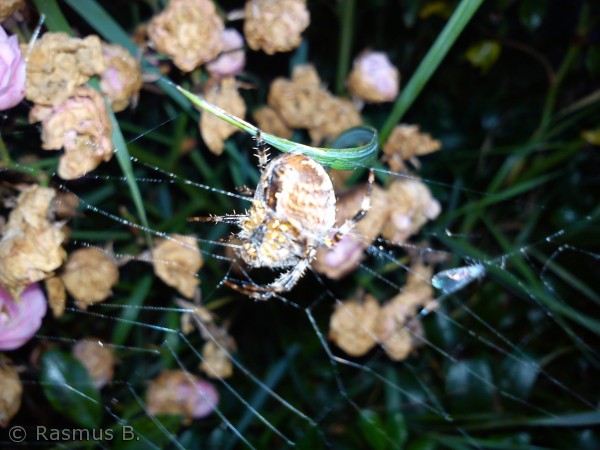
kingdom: Animalia
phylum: Arthropoda
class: Arachnida
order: Araneae
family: Araneidae
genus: Araneus
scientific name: Araneus diadematus
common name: Korsedderkop
